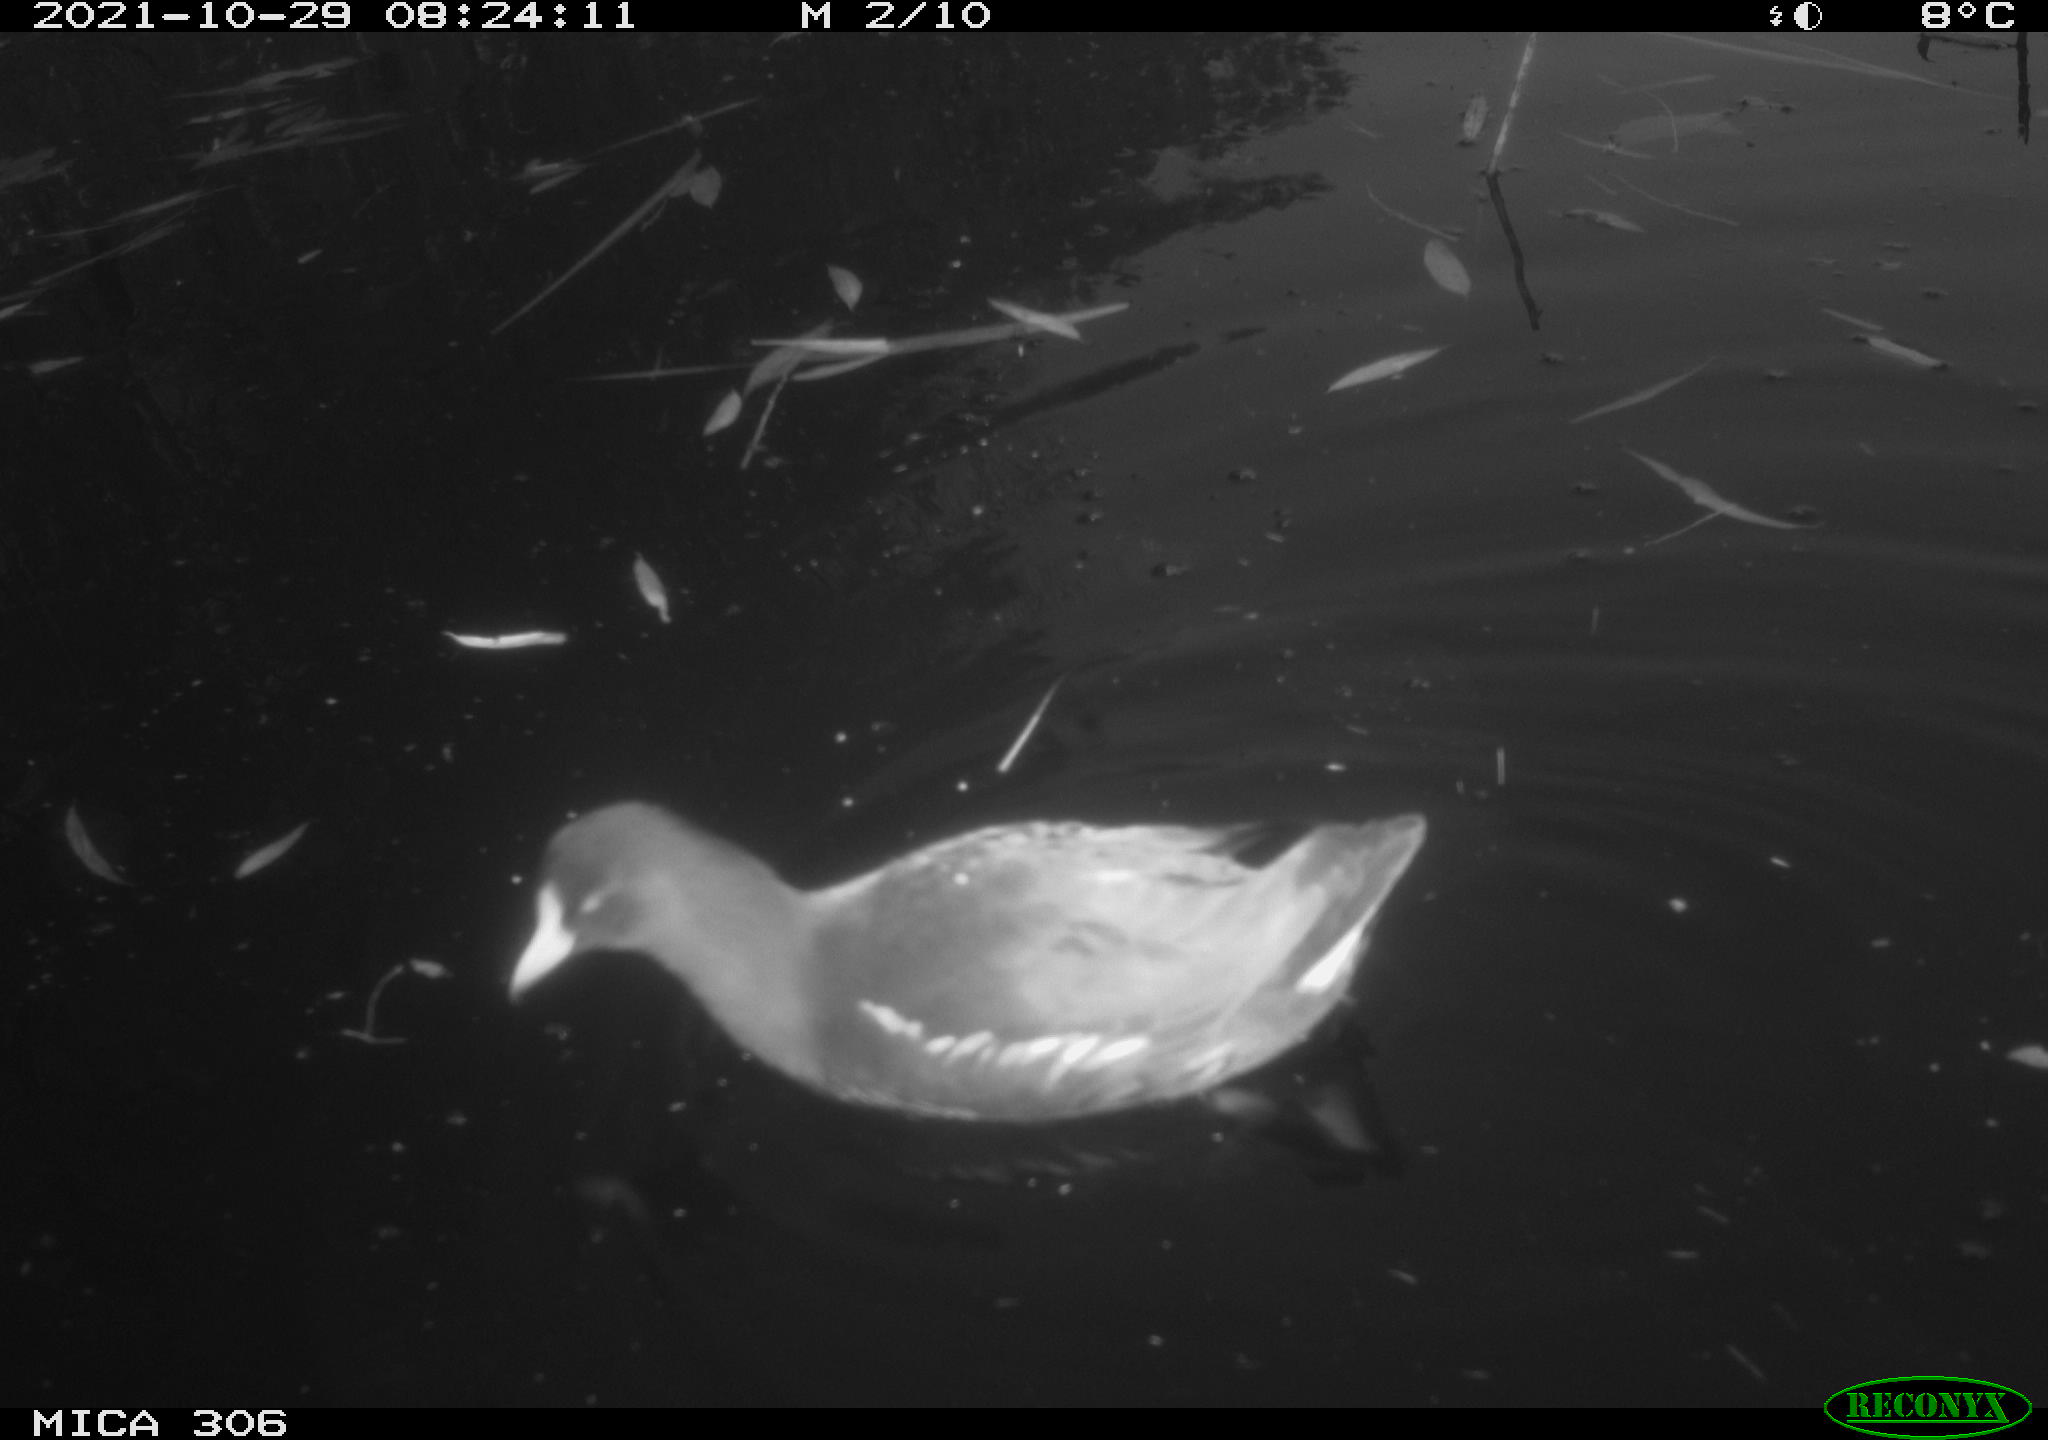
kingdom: Animalia
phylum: Chordata
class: Aves
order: Gruiformes
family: Rallidae
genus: Gallinula
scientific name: Gallinula chloropus
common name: Common moorhen
